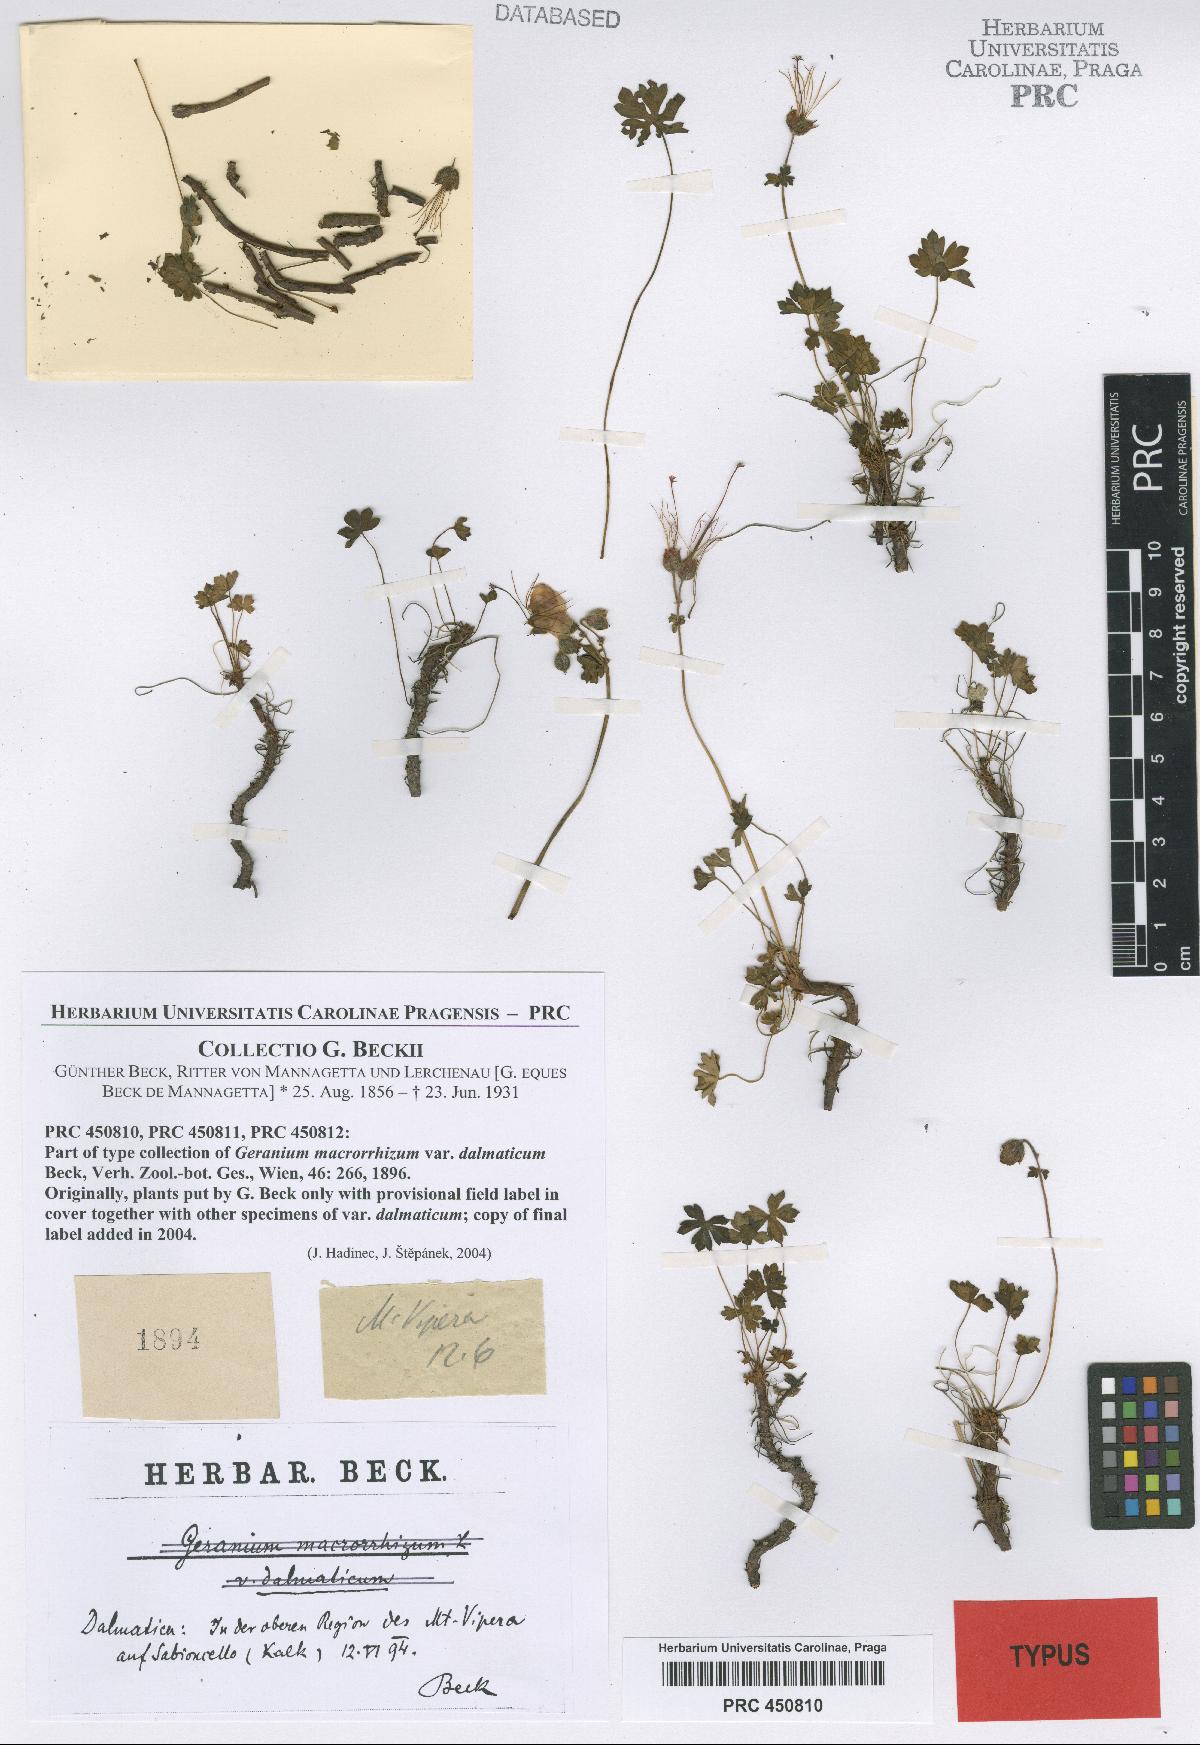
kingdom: Plantae
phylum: Tracheophyta
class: Magnoliopsida
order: Geraniales
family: Geraniaceae
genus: Geranium
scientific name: Geranium dalmaticum
